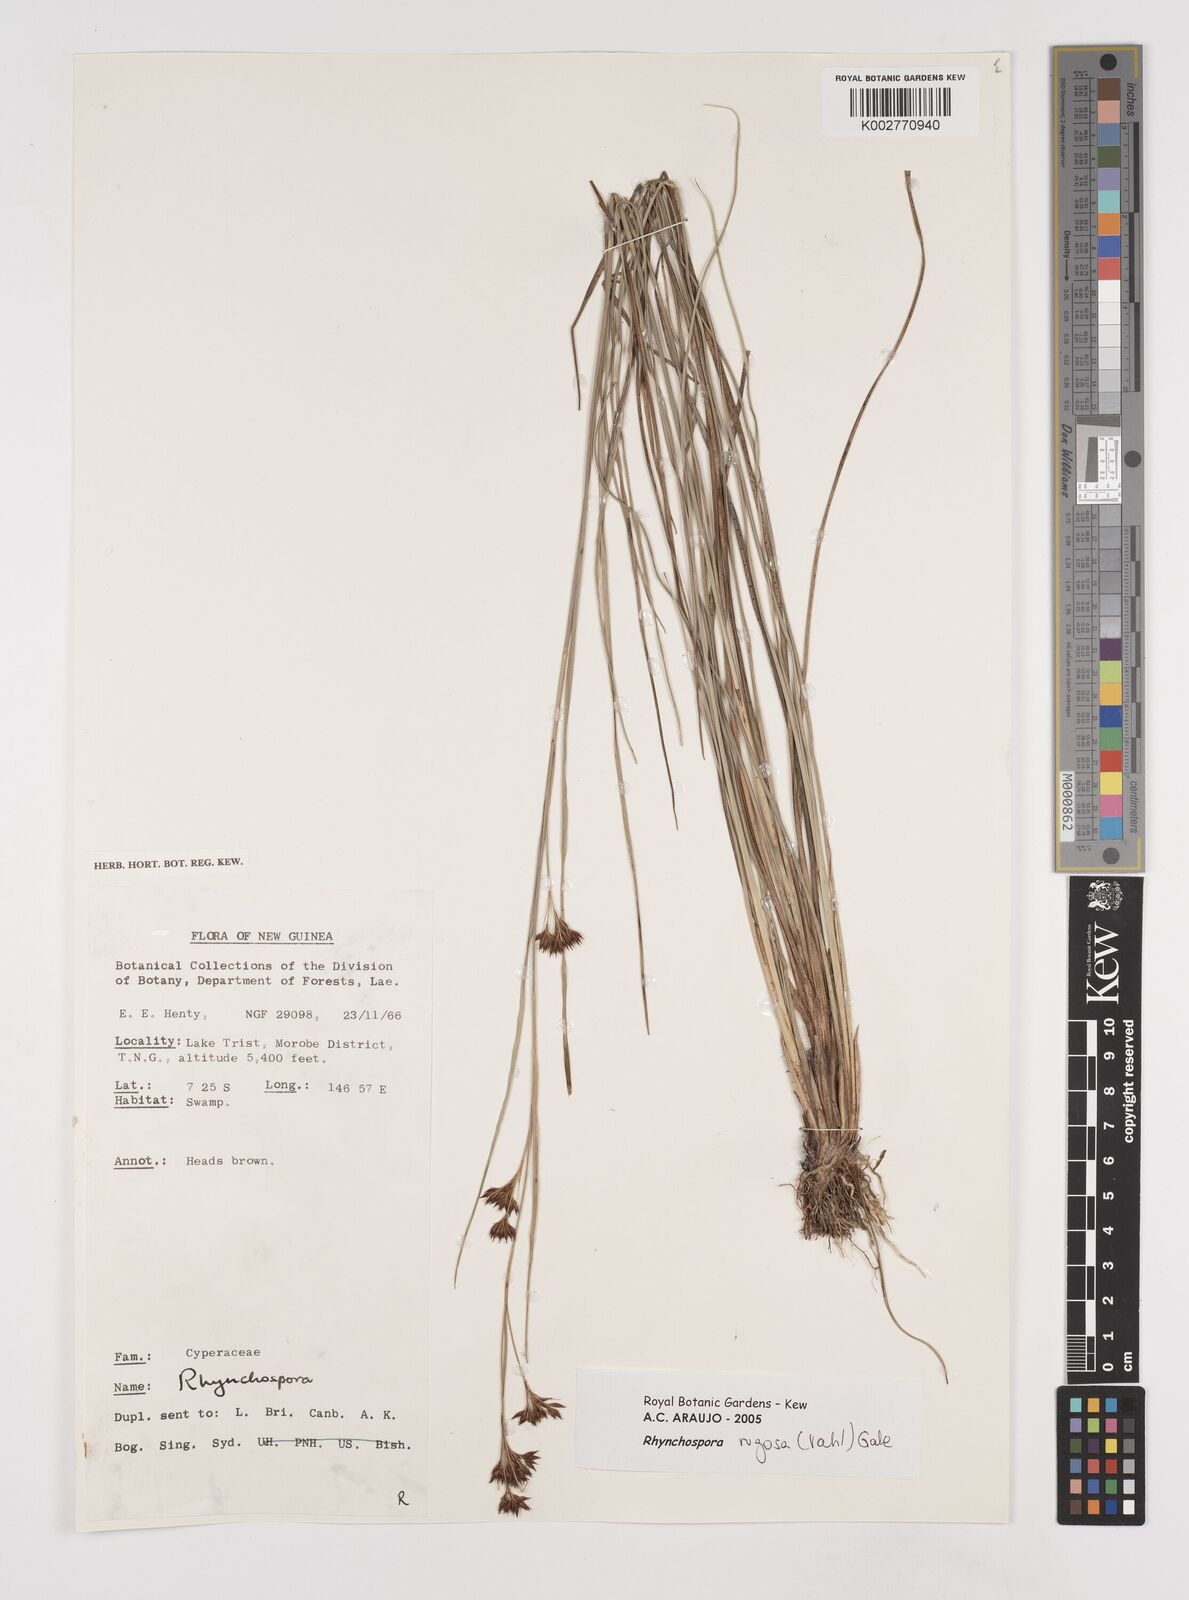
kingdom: Plantae
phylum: Tracheophyta
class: Liliopsida
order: Poales
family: Cyperaceae
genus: Rhynchospora
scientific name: Rhynchospora rugosa
